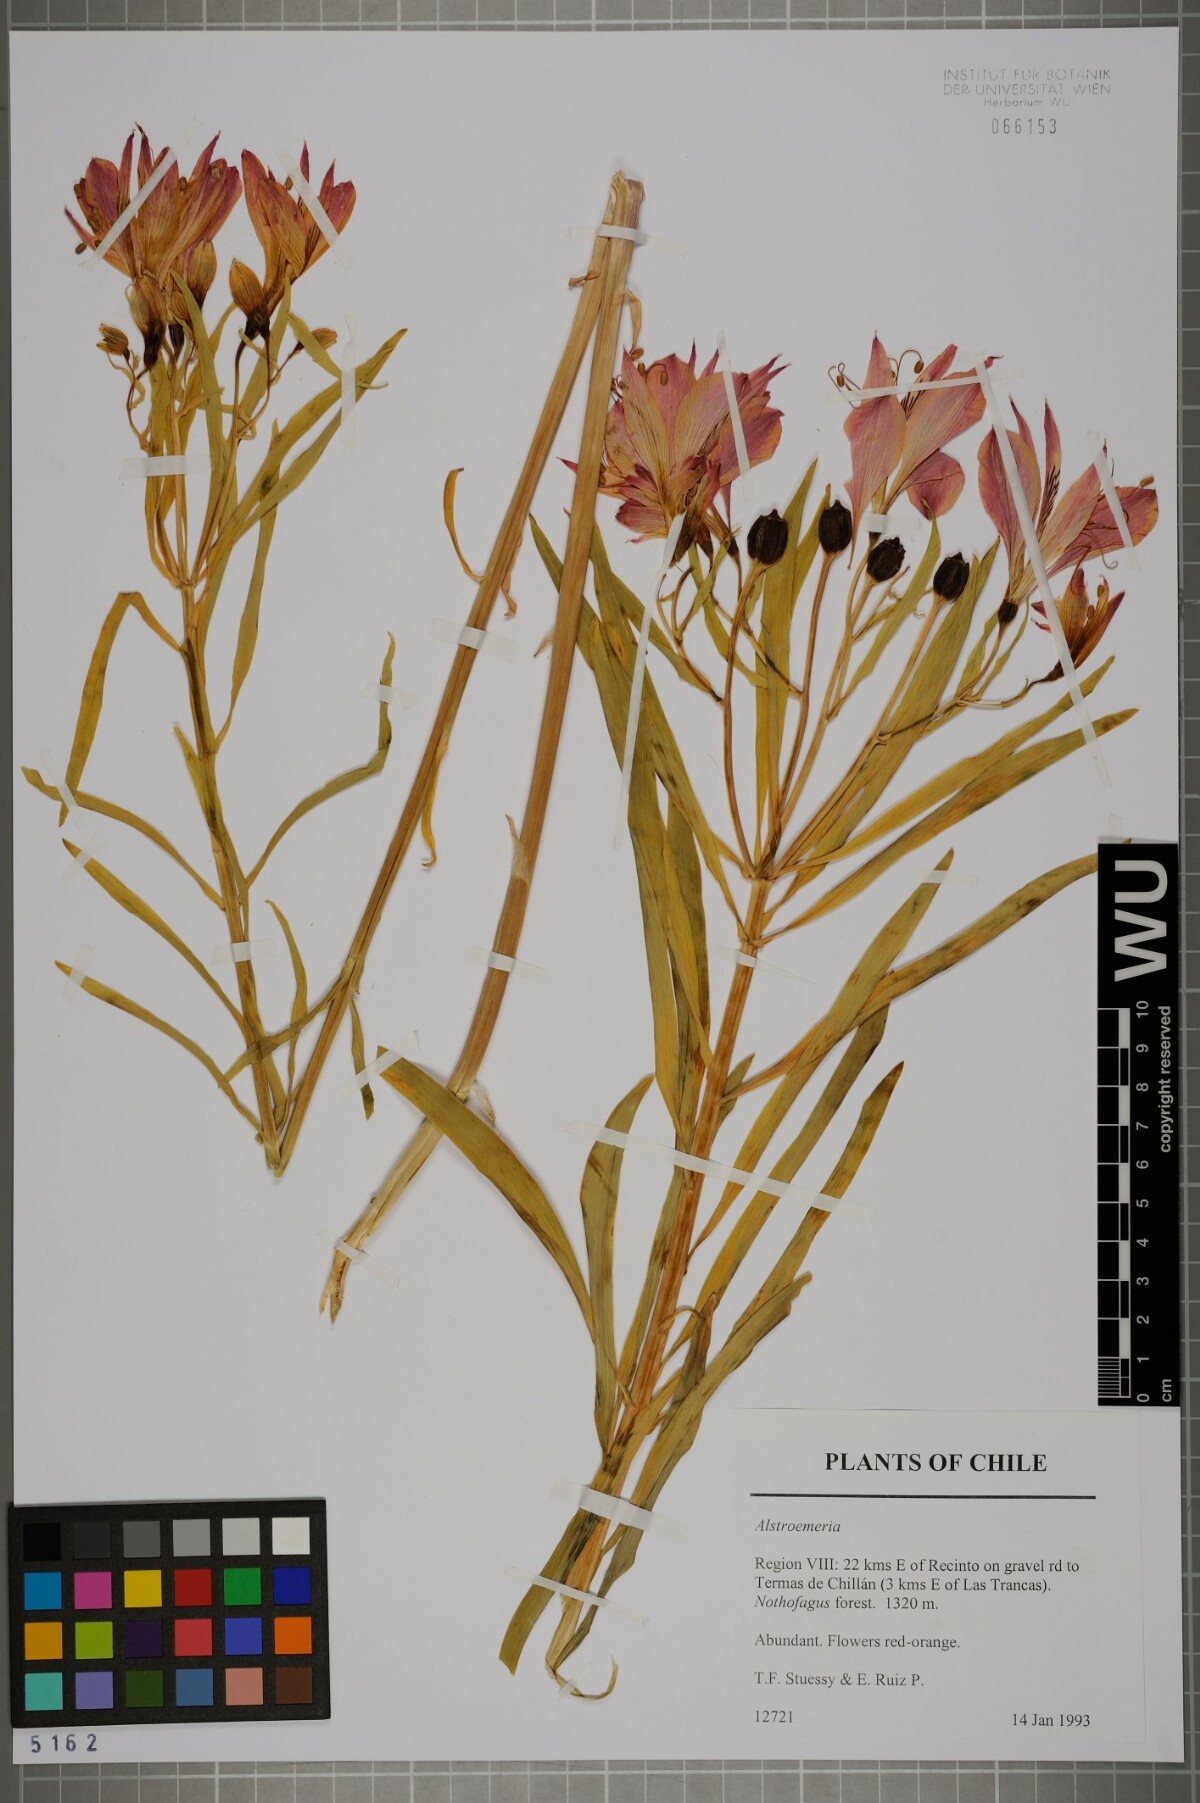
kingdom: Plantae
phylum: Tracheophyta
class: Liliopsida
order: Liliales
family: Alstroemeriaceae
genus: Alstroemeria
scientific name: Alstroemeria
